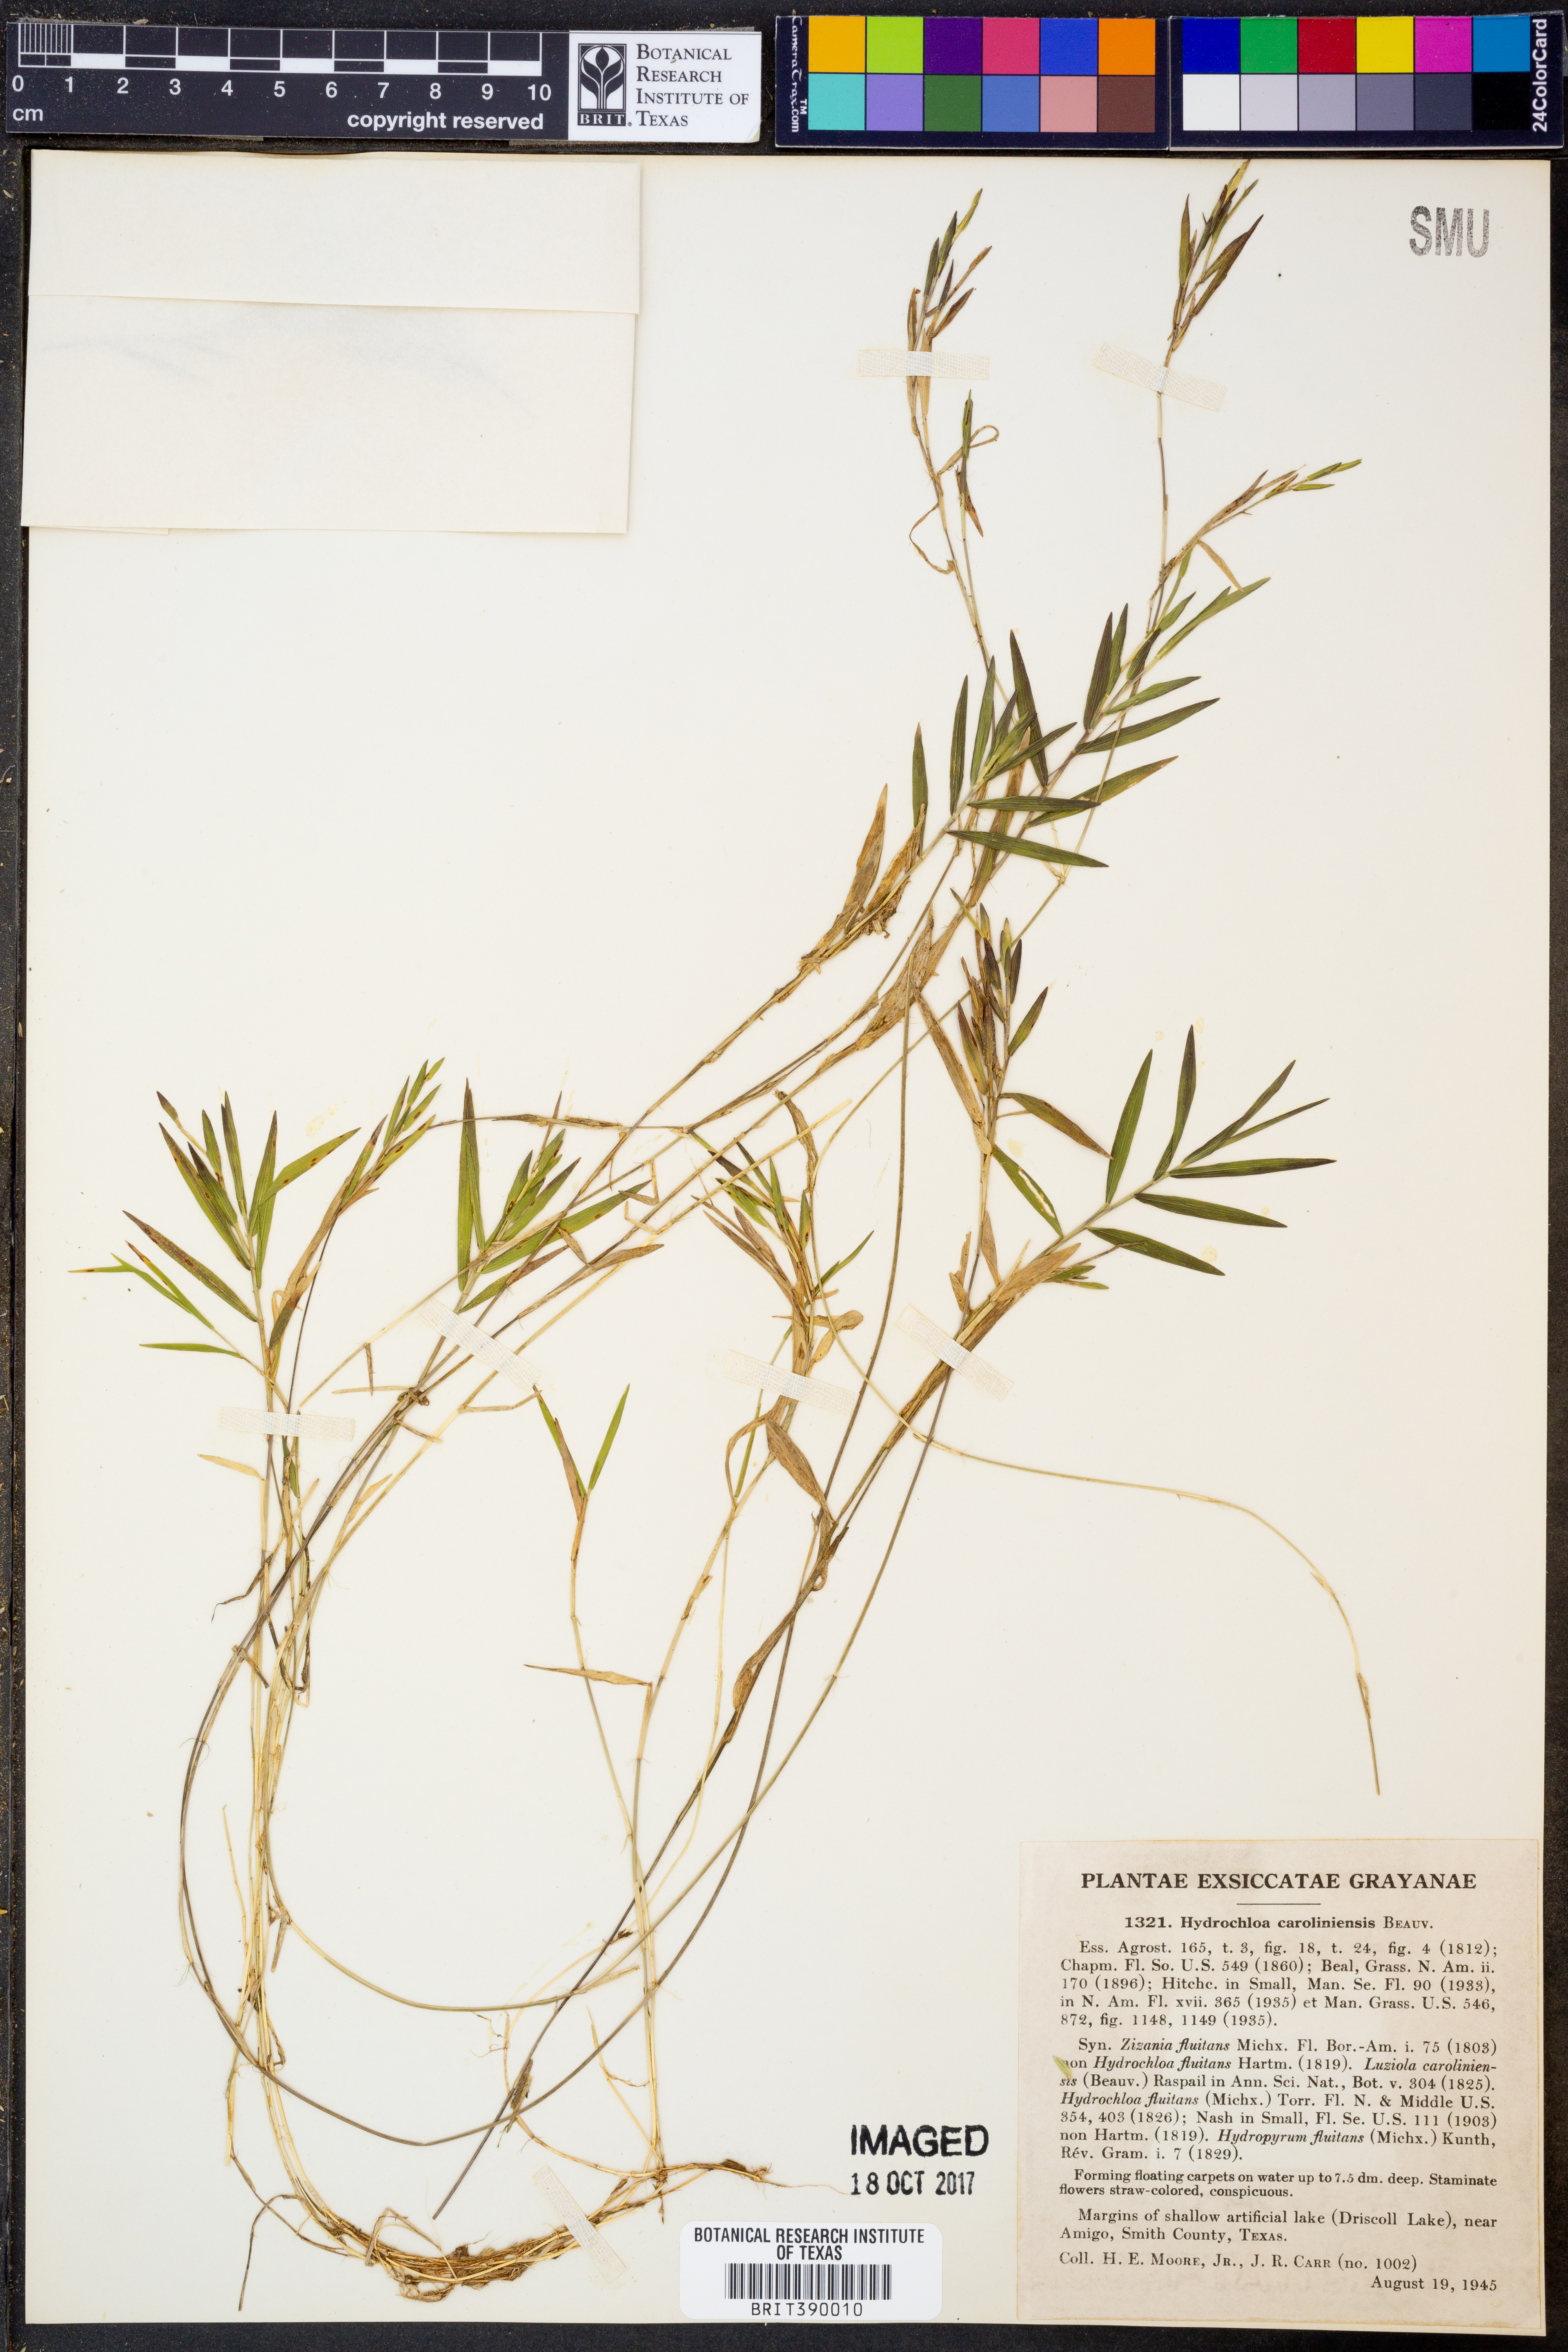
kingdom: Plantae
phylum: Tracheophyta
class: Liliopsida
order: Poales
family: Poaceae
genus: Luziola
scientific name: Luziola fluitans
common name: Silverleaf grass
